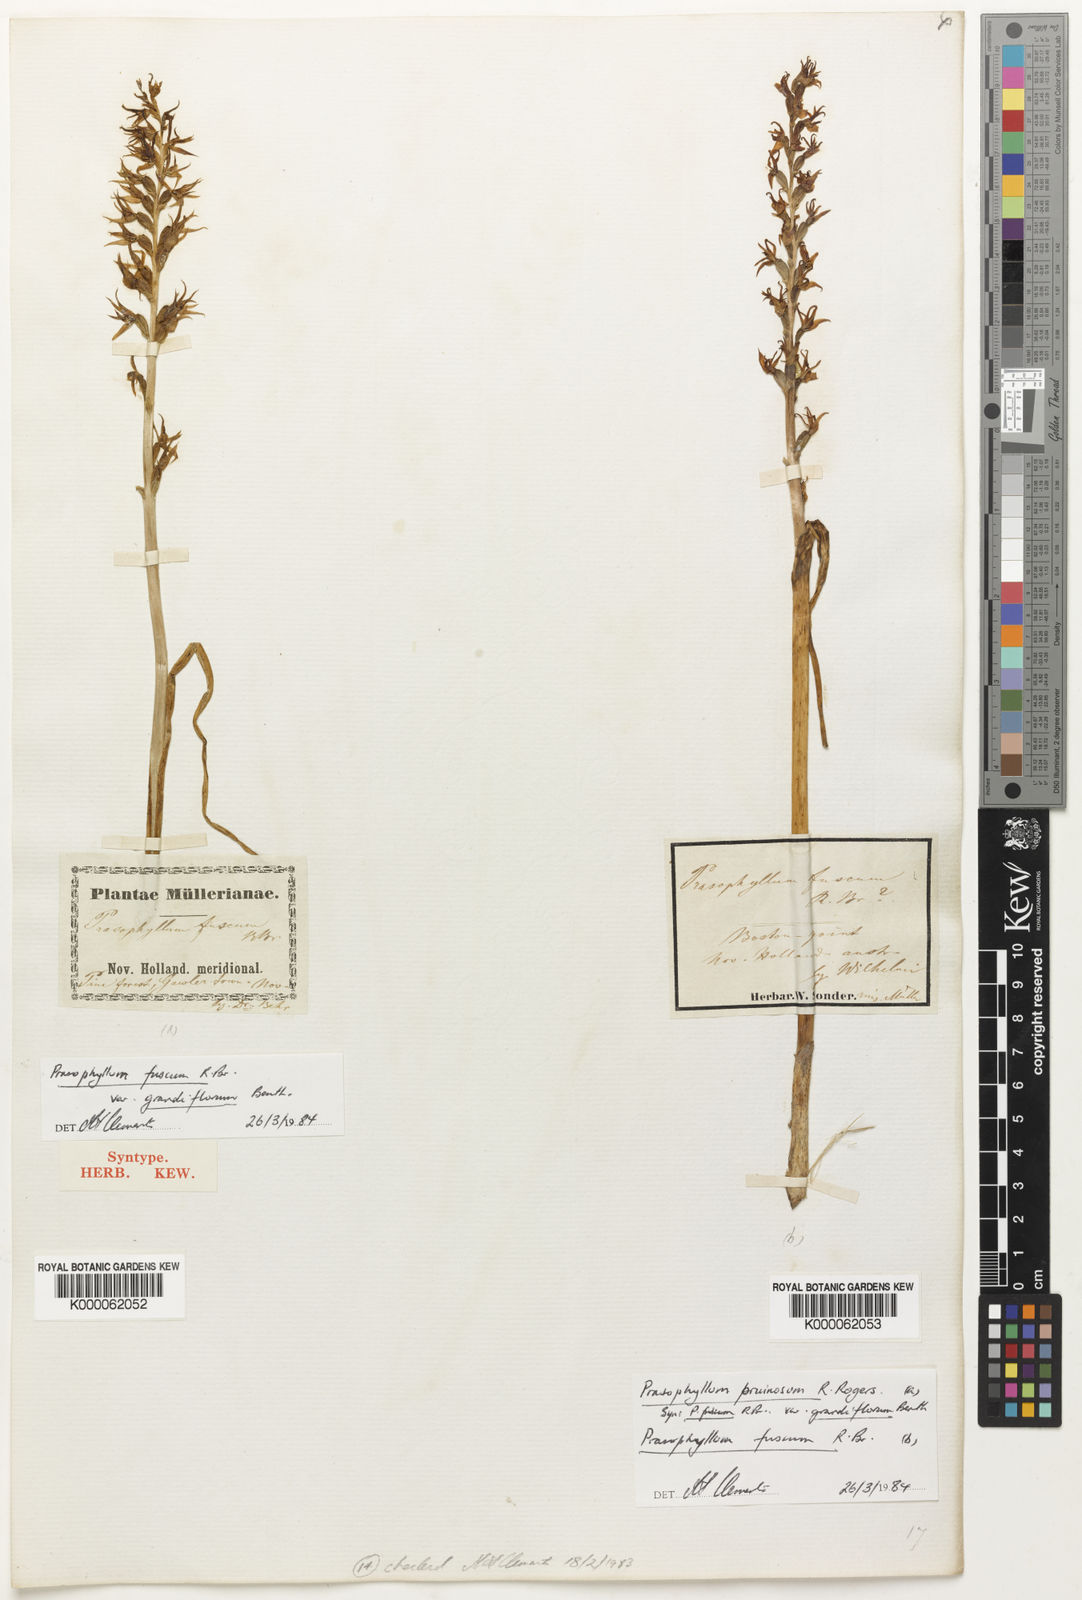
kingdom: Plantae
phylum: Tracheophyta
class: Liliopsida
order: Asparagales
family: Orchidaceae
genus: Prasophyllum
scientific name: Prasophyllum fuscum
